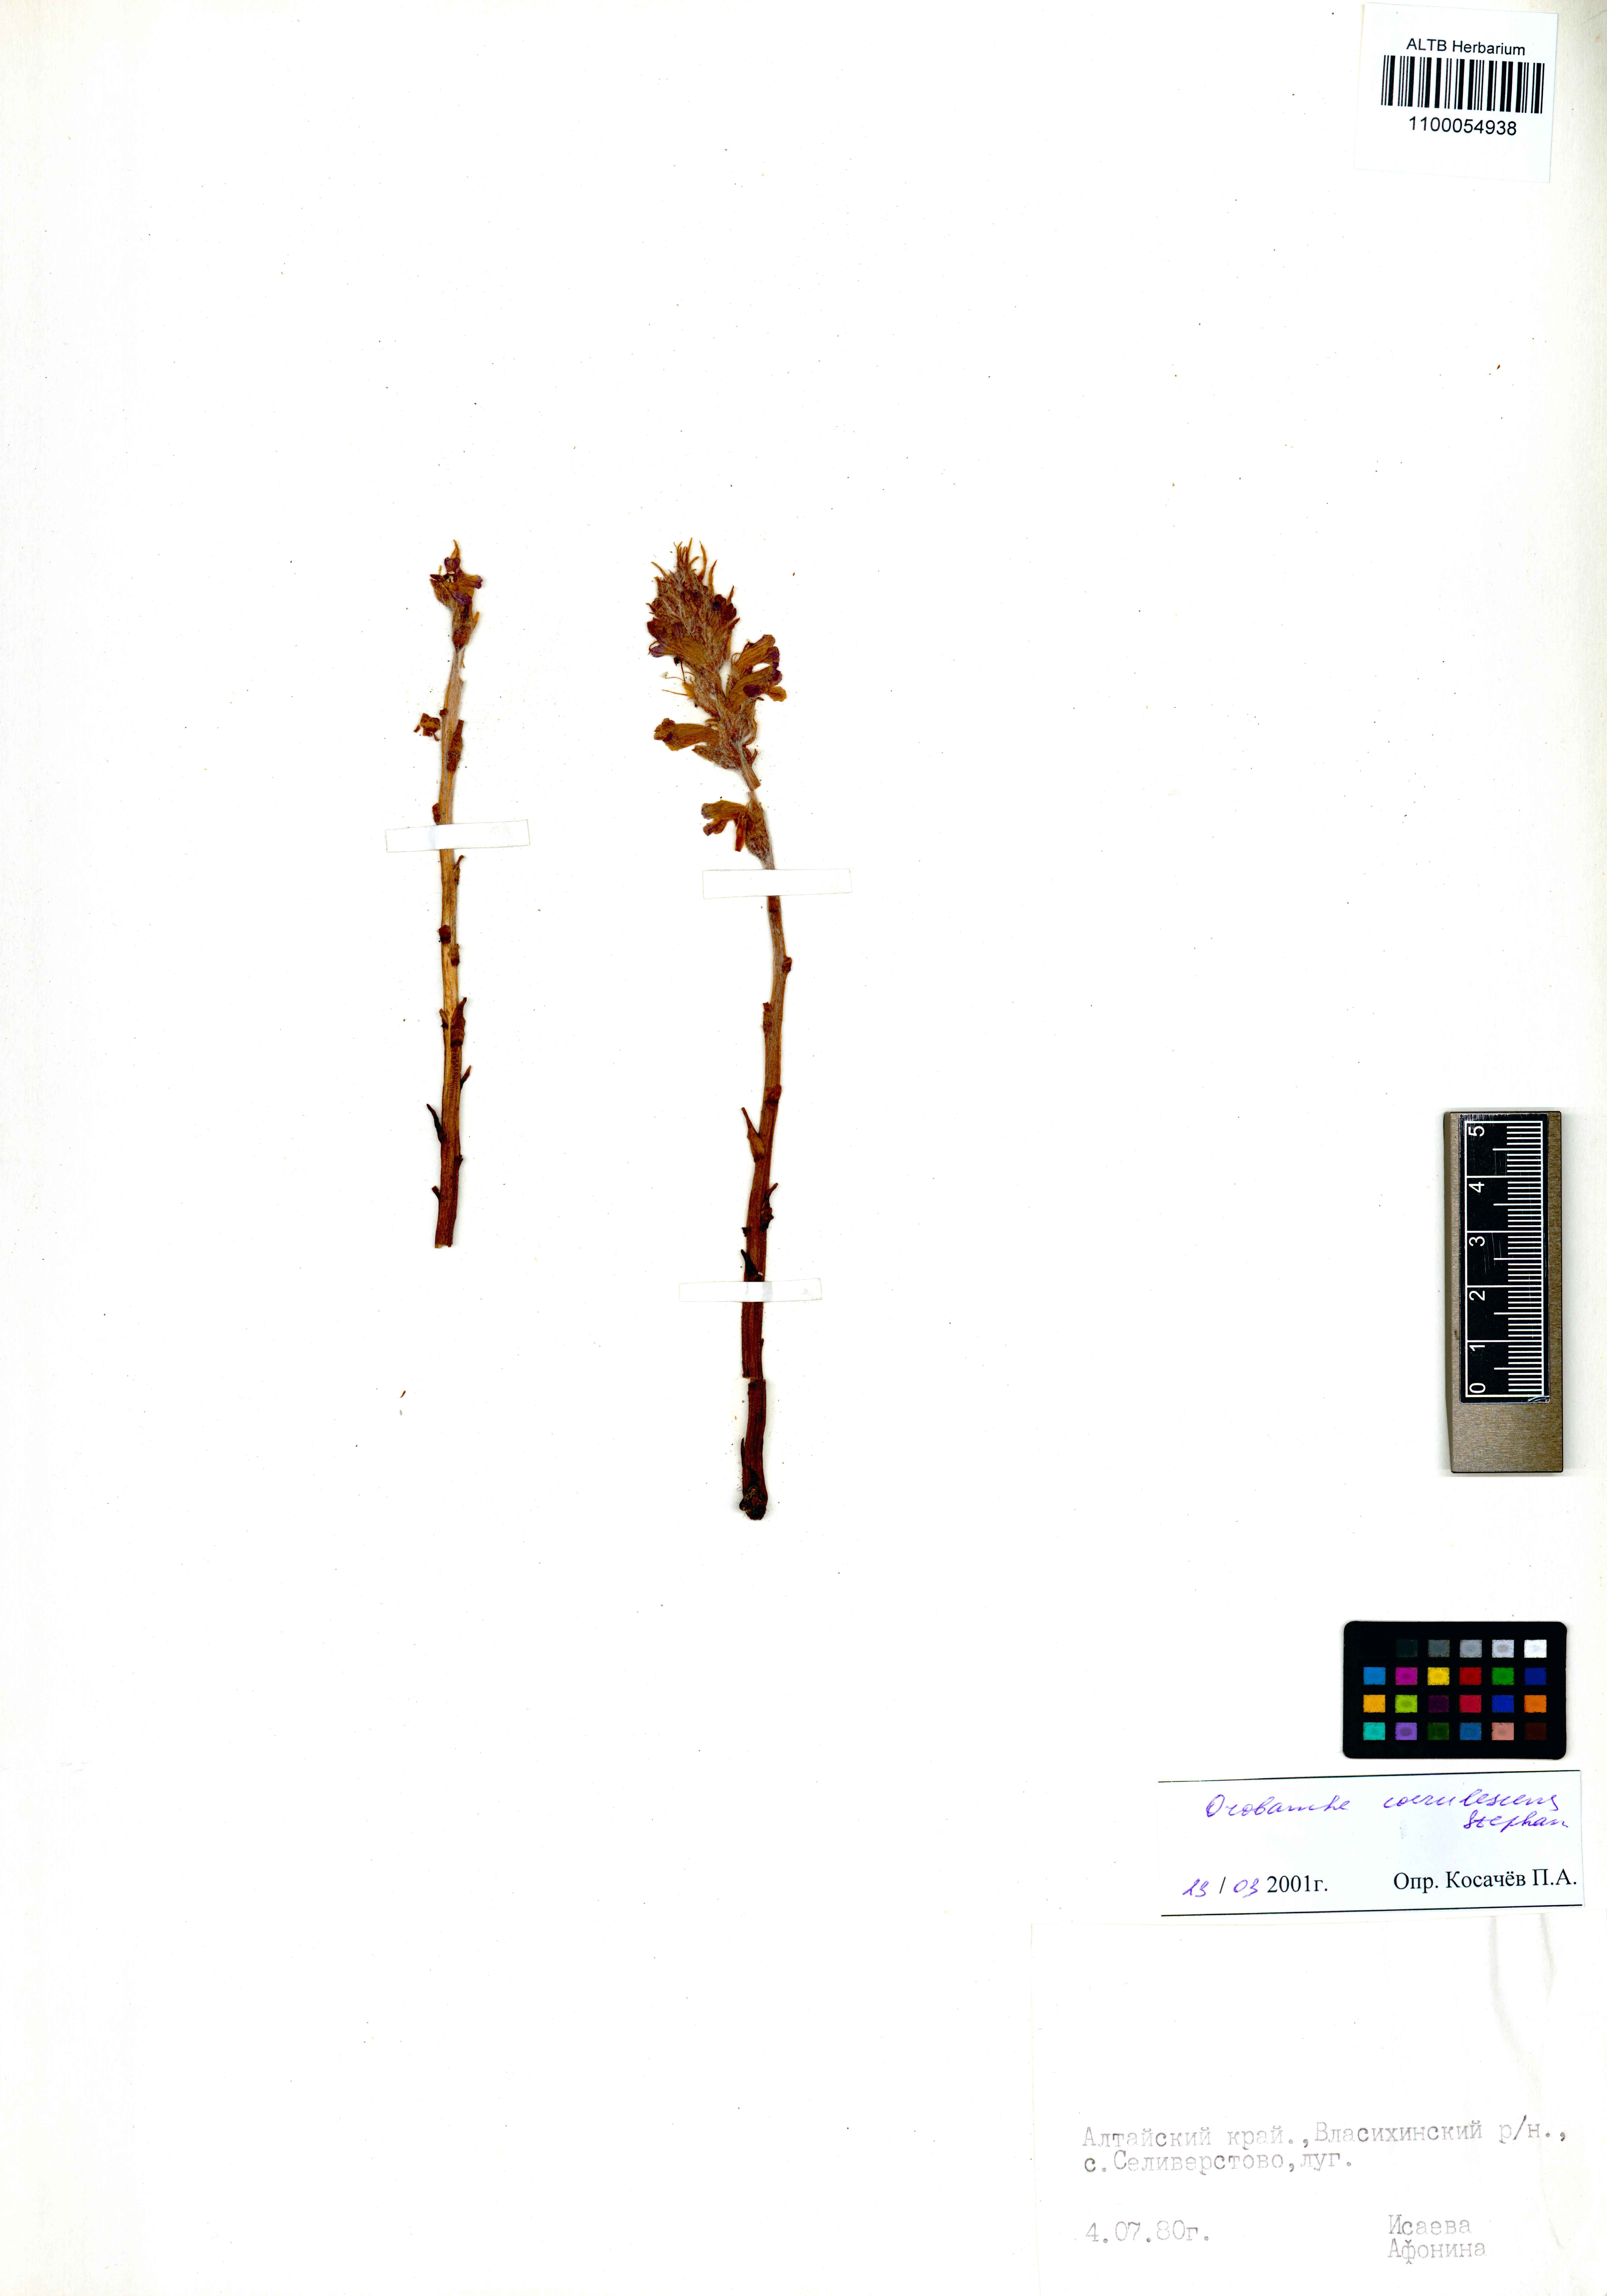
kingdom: Plantae
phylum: Tracheophyta
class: Magnoliopsida
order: Lamiales
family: Orobanchaceae
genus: Orobanche
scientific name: Orobanche coerulescens
